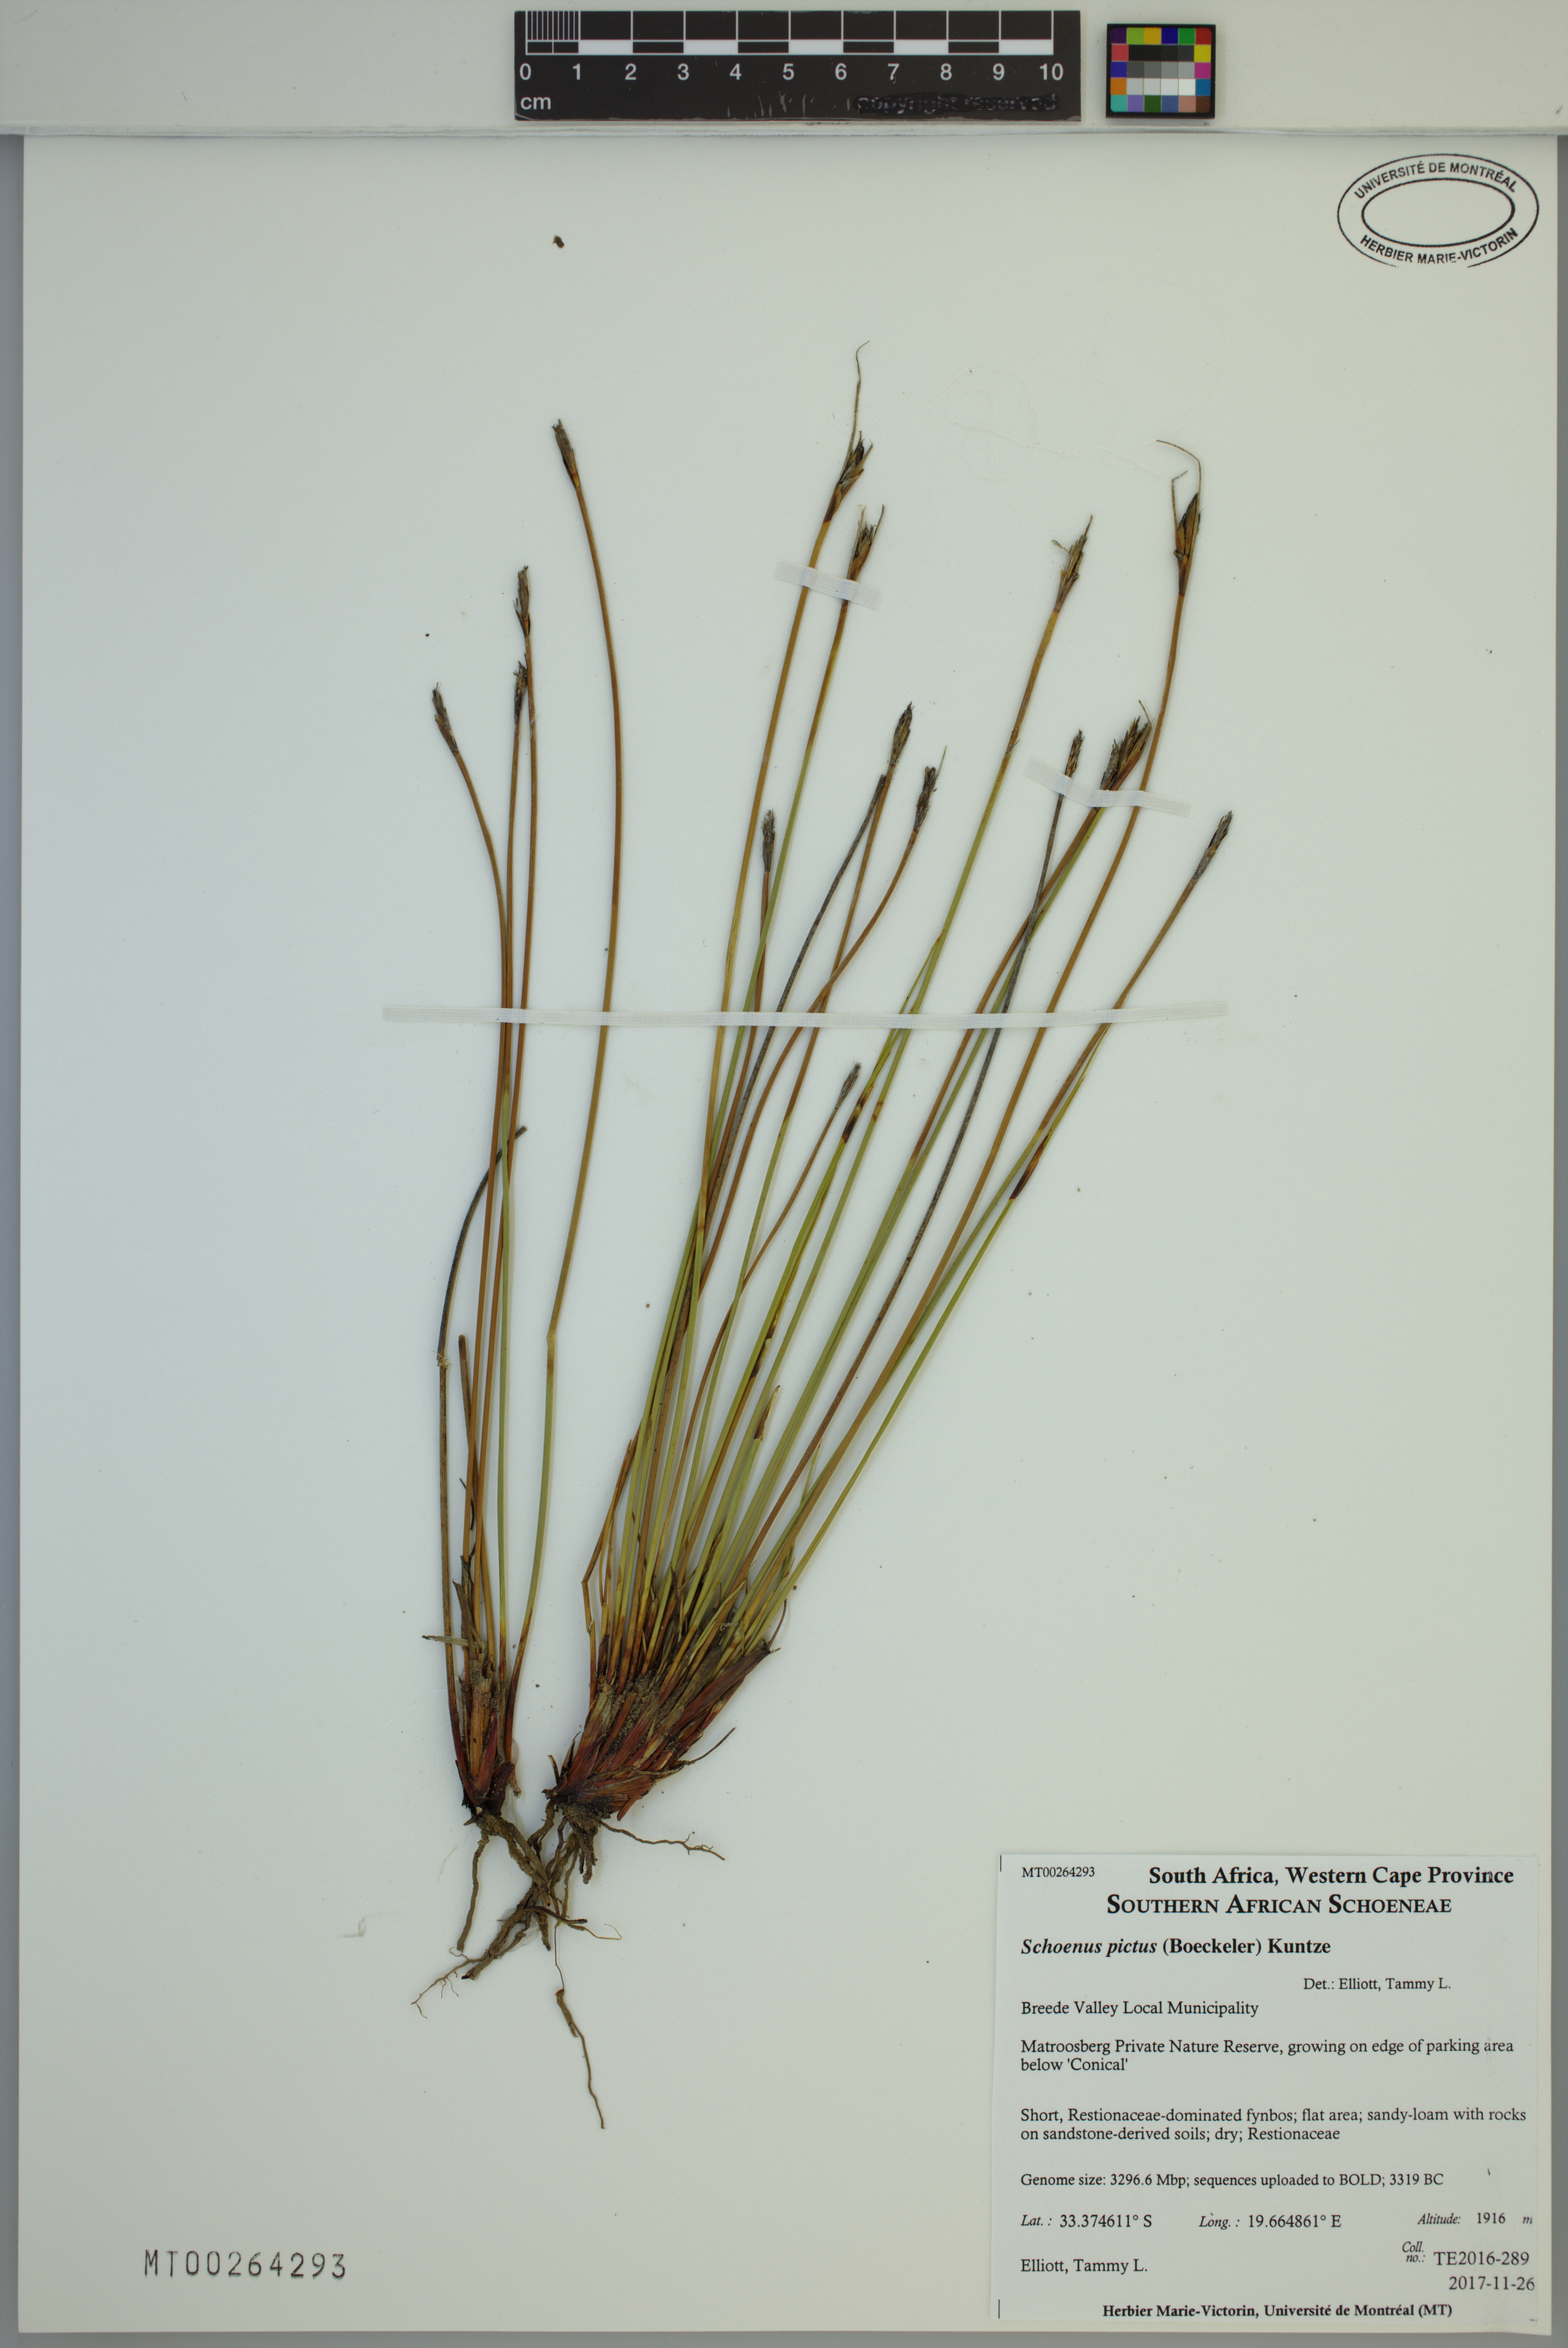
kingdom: Plantae
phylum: Tracheophyta
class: Liliopsida
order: Poales
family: Cyperaceae
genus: Schoenus
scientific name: Schoenus pictus
